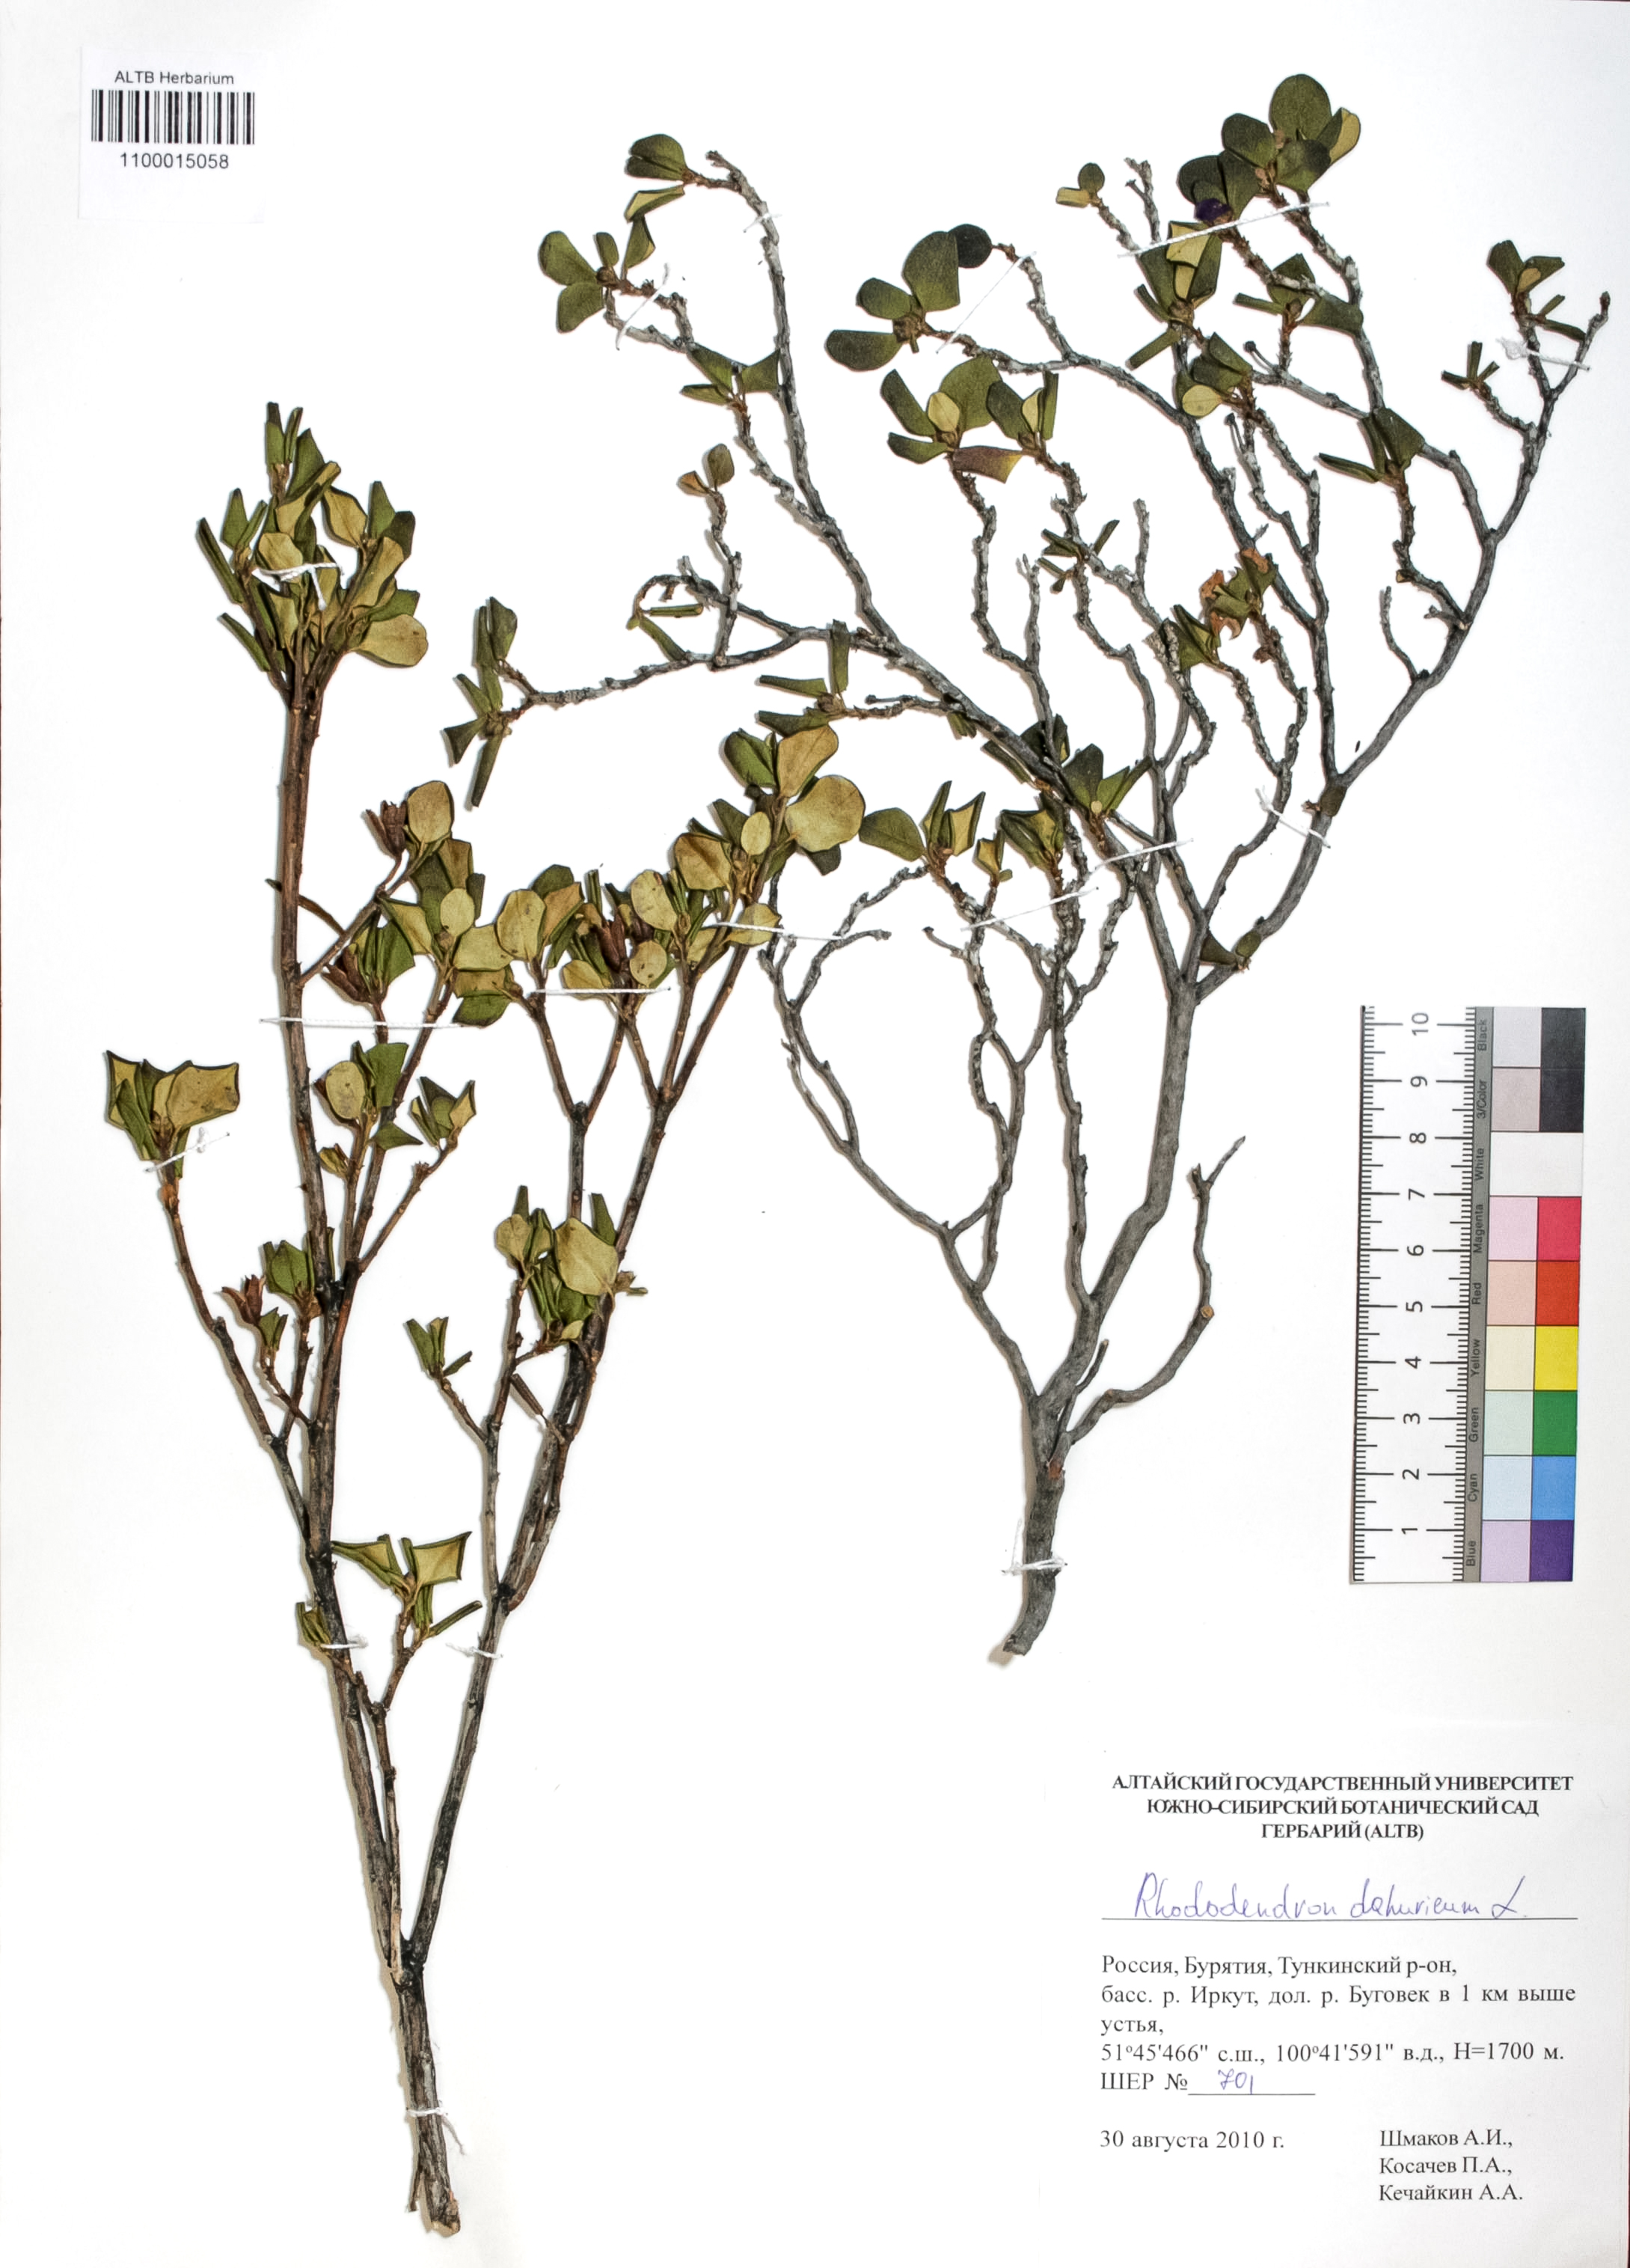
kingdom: Plantae
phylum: Tracheophyta
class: Magnoliopsida
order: Ericales
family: Ericaceae
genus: Rhododendron
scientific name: Rhododendron dahuricum
